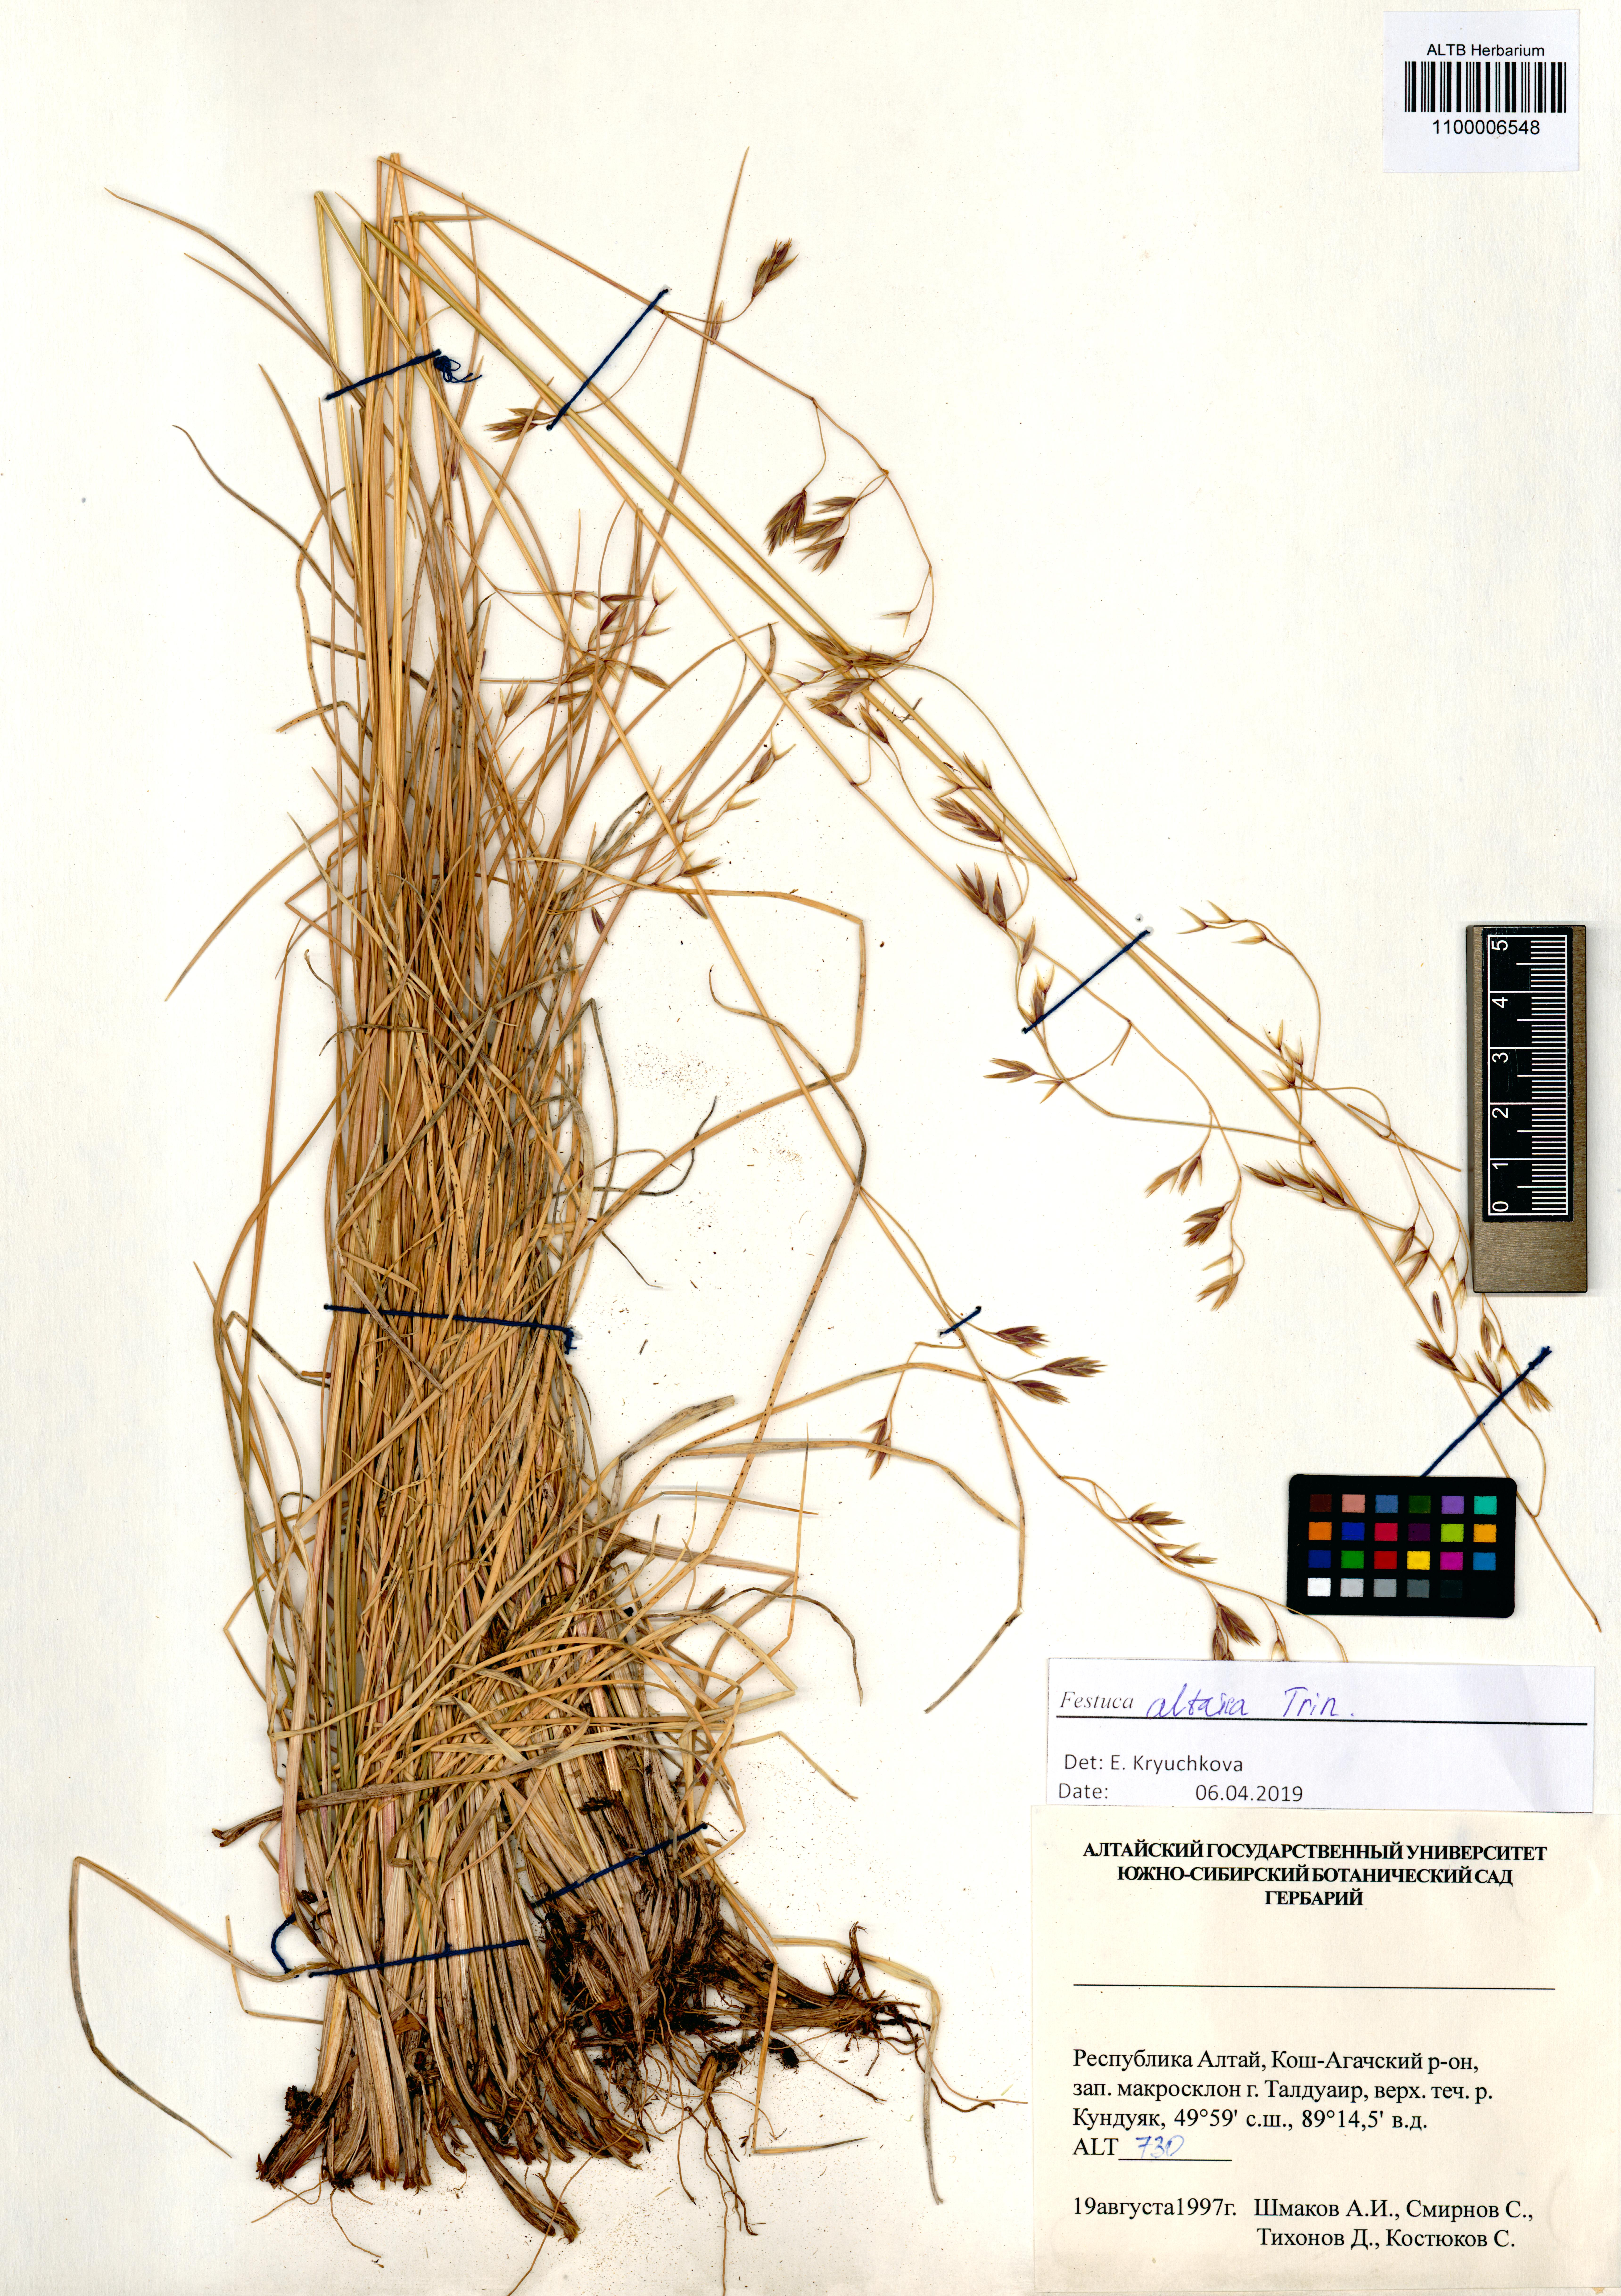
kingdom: Plantae
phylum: Tracheophyta
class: Liliopsida
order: Poales
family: Poaceae
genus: Festuca
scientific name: Festuca altaica
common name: Northern rough fescue
